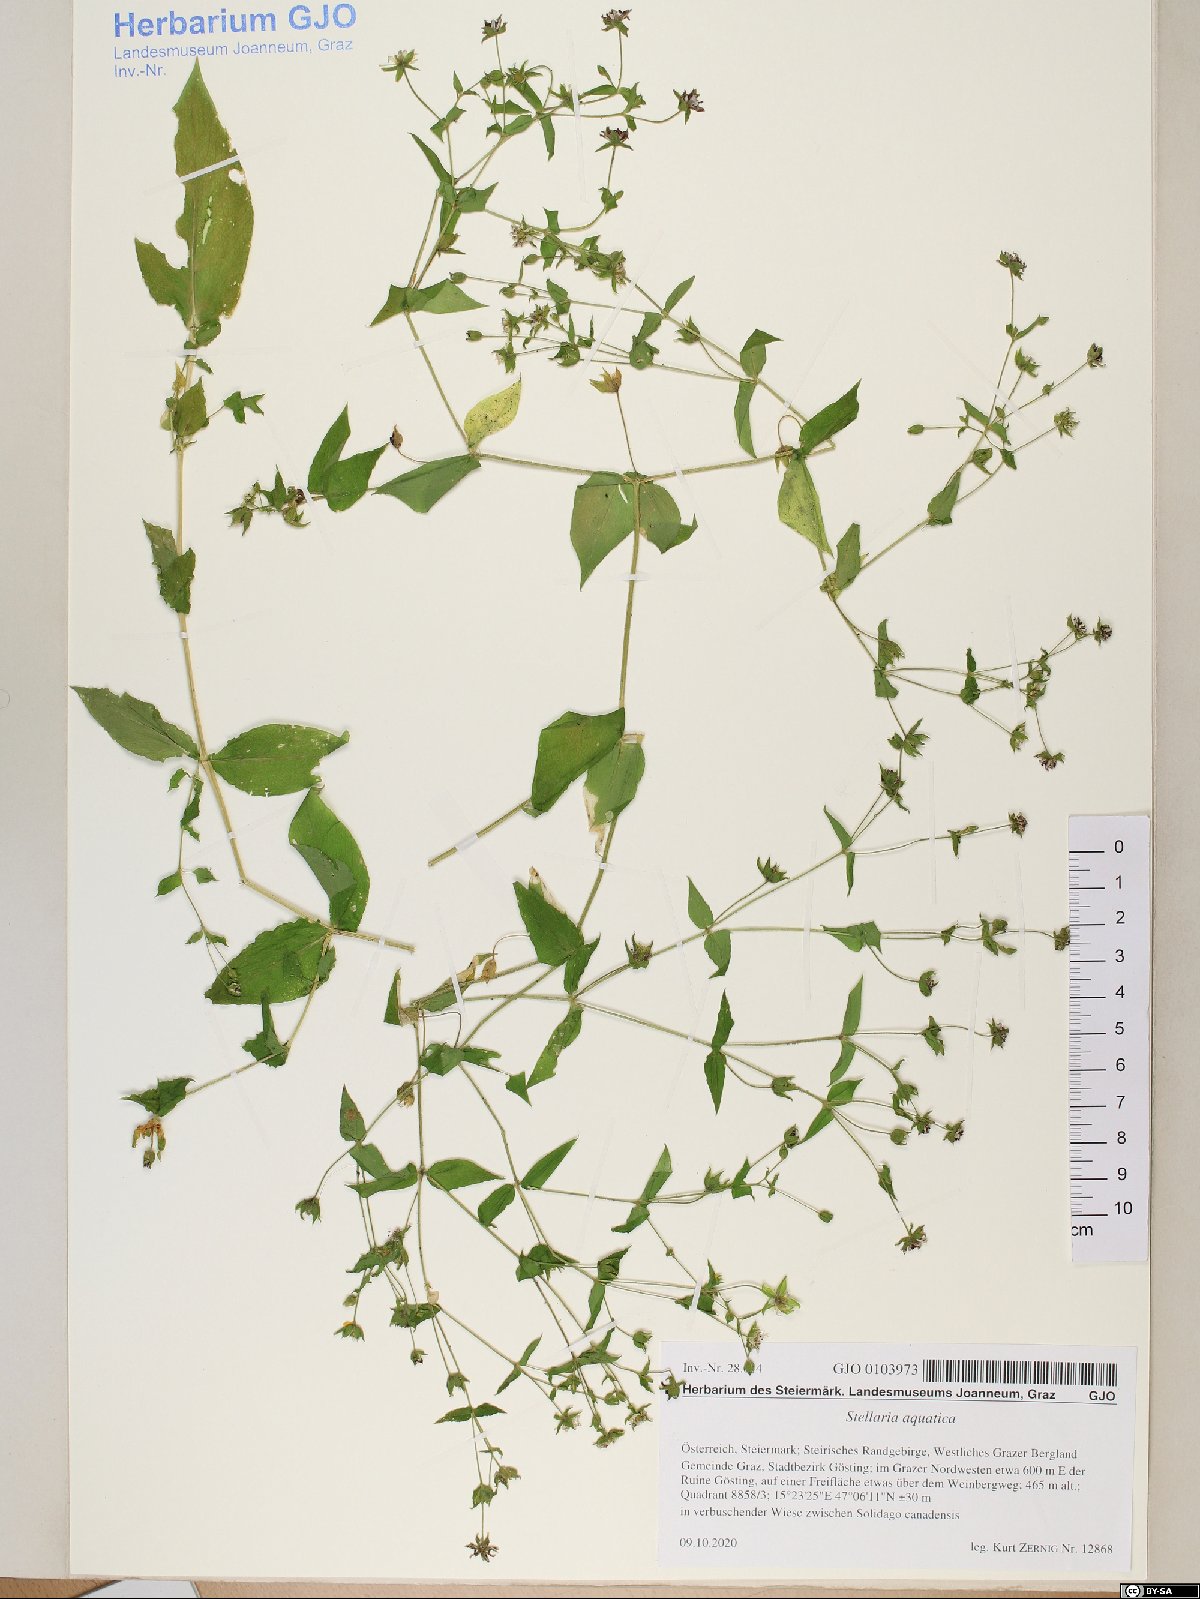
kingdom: Plantae
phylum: Tracheophyta
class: Magnoliopsida
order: Caryophyllales
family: Caryophyllaceae
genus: Stellaria
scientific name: Stellaria aquatica
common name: Water chickweed
